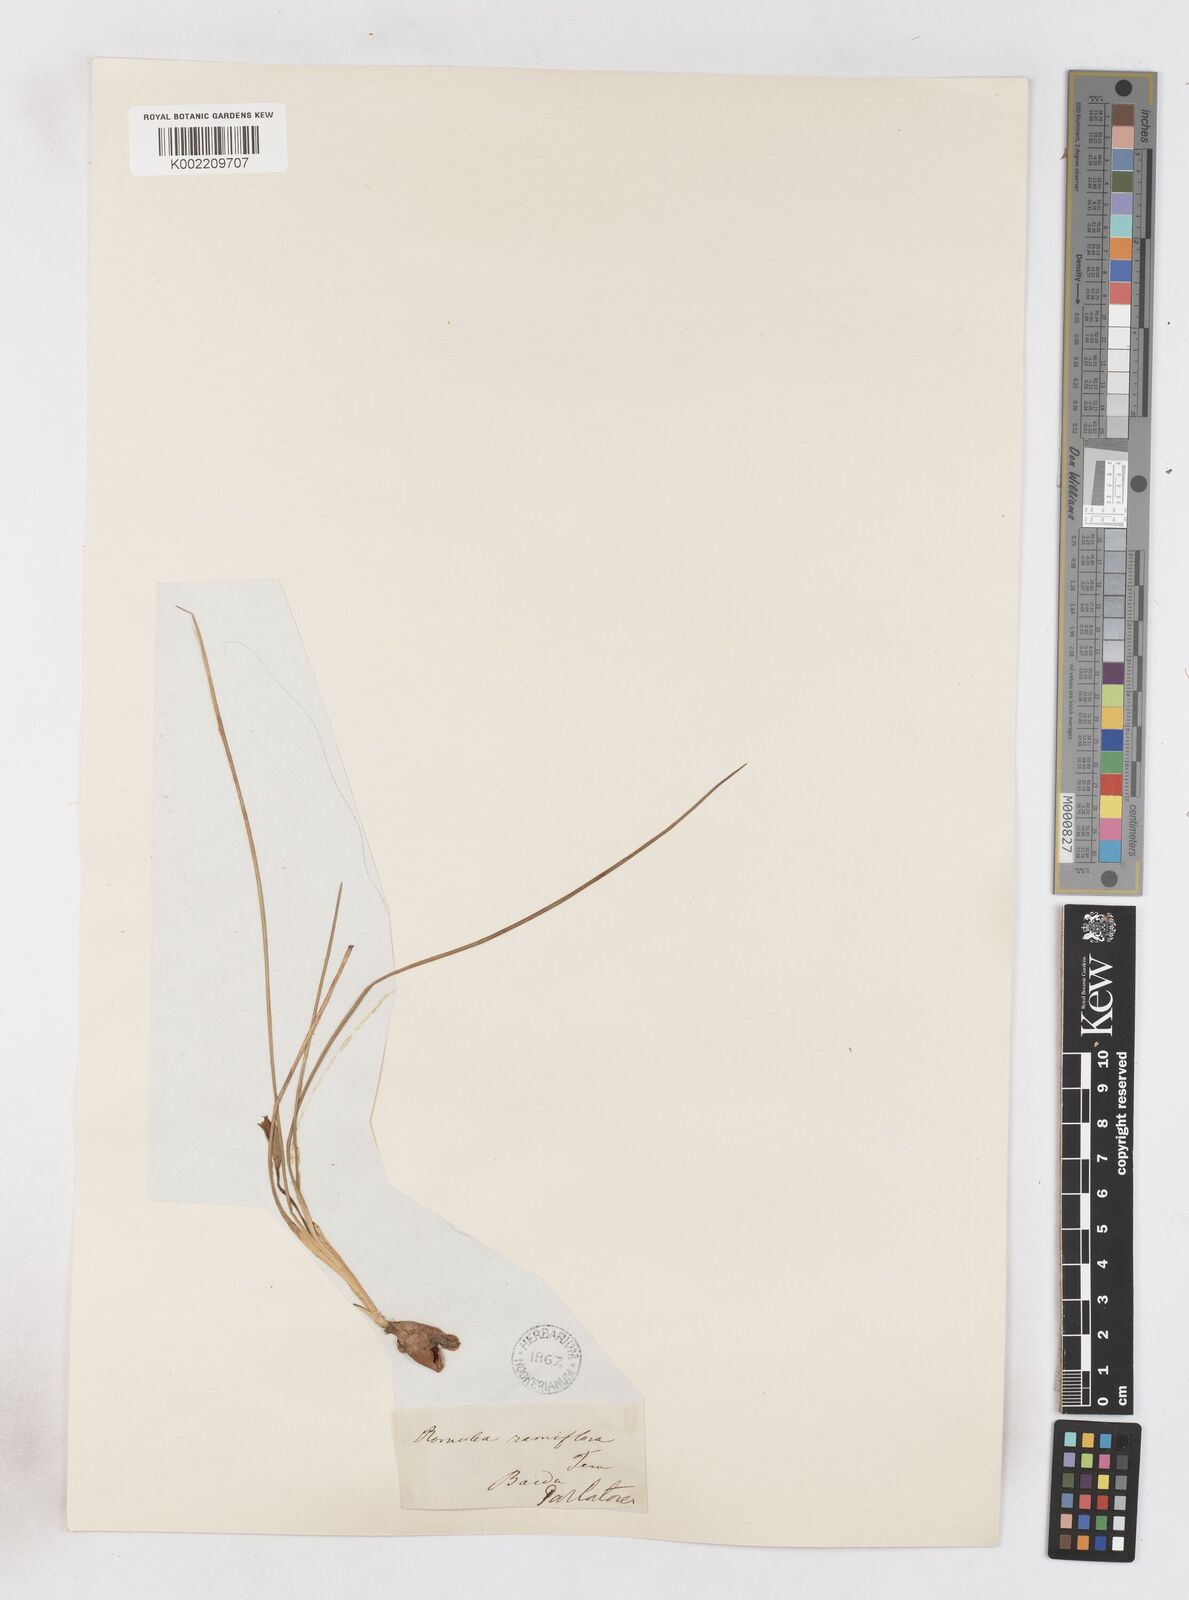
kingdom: Plantae
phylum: Tracheophyta
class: Liliopsida
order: Asparagales
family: Iridaceae
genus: Romulea
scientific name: Romulea ramiflora
